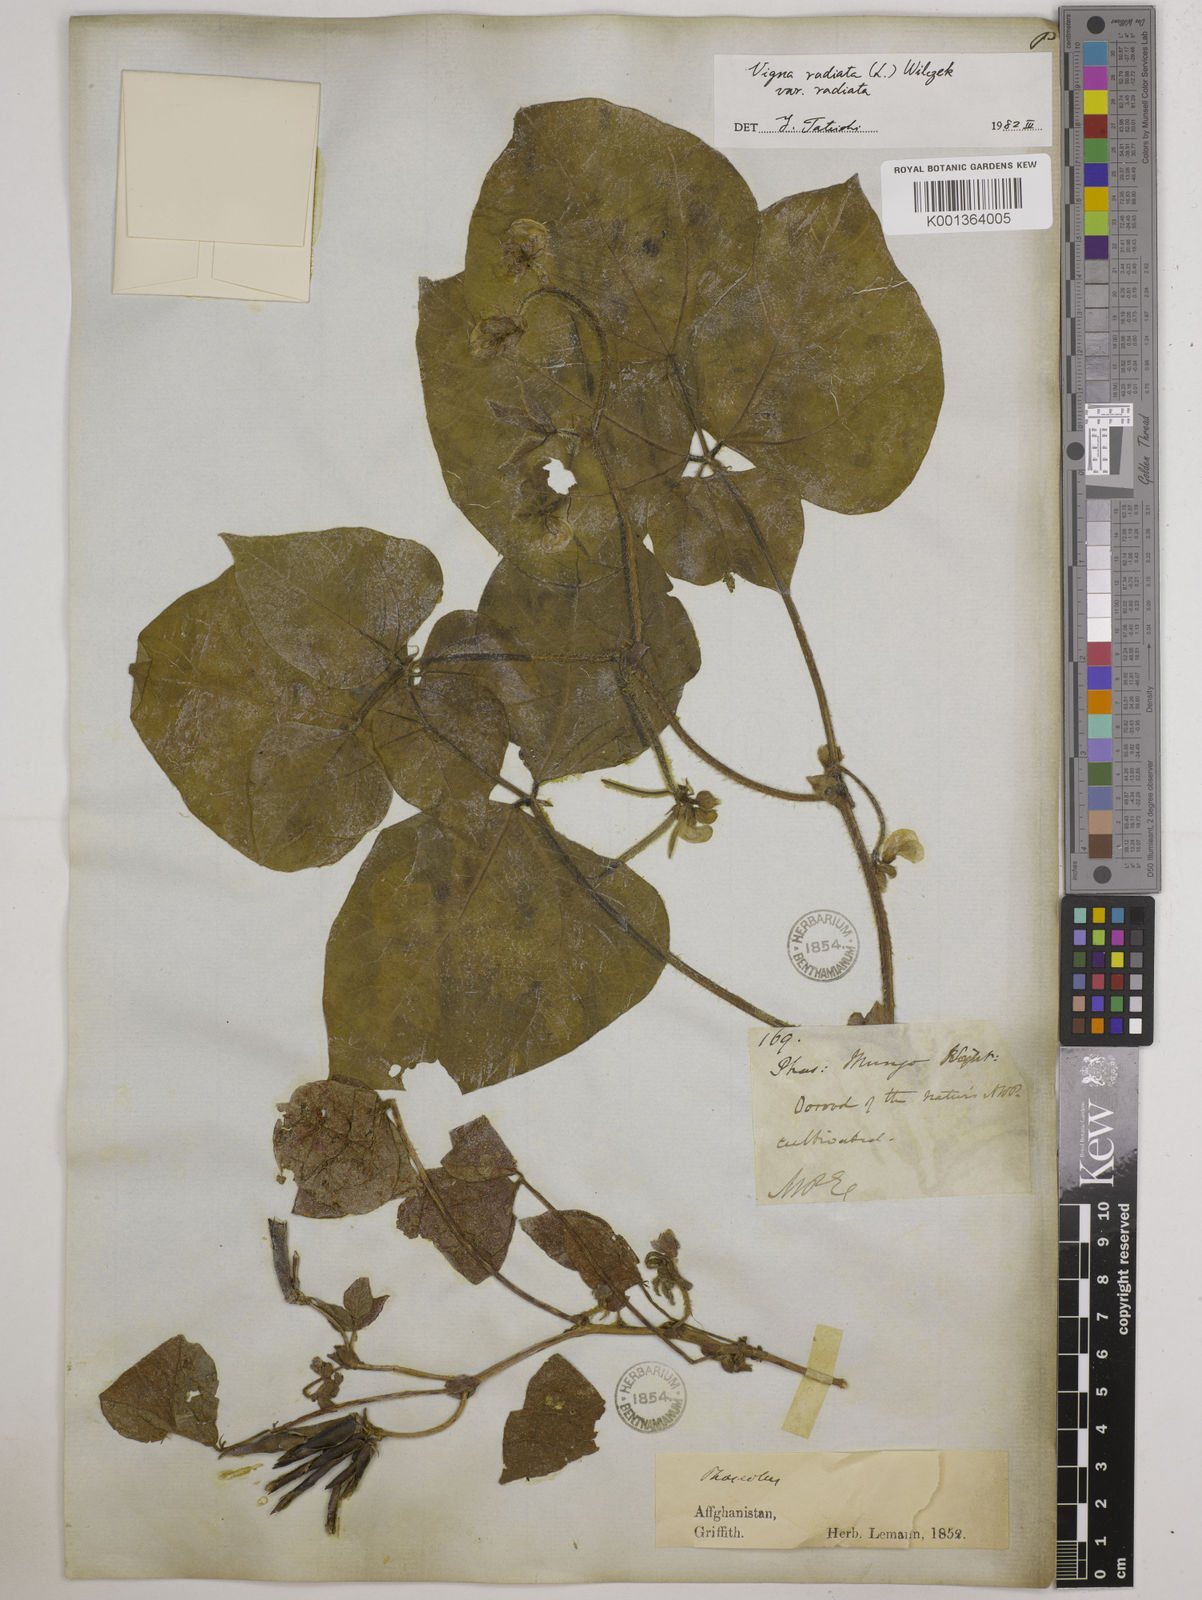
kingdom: Plantae
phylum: Tracheophyta
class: Magnoliopsida
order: Fabales
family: Fabaceae
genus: Vigna
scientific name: Vigna radiata
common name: Mung-bean
